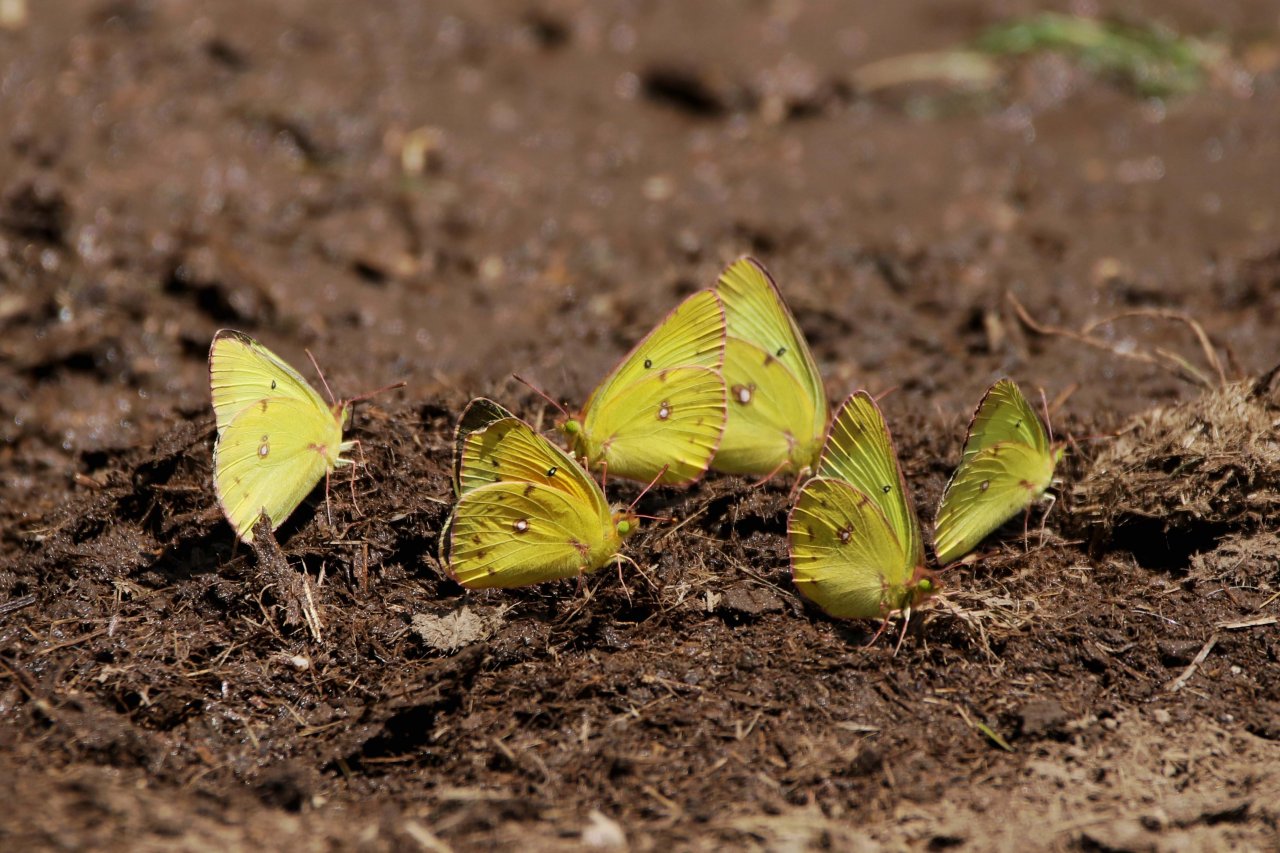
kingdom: Animalia
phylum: Arthropoda
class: Insecta
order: Lepidoptera
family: Pieridae
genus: Colias
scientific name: Colias philodice
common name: Clouded Sulphur
